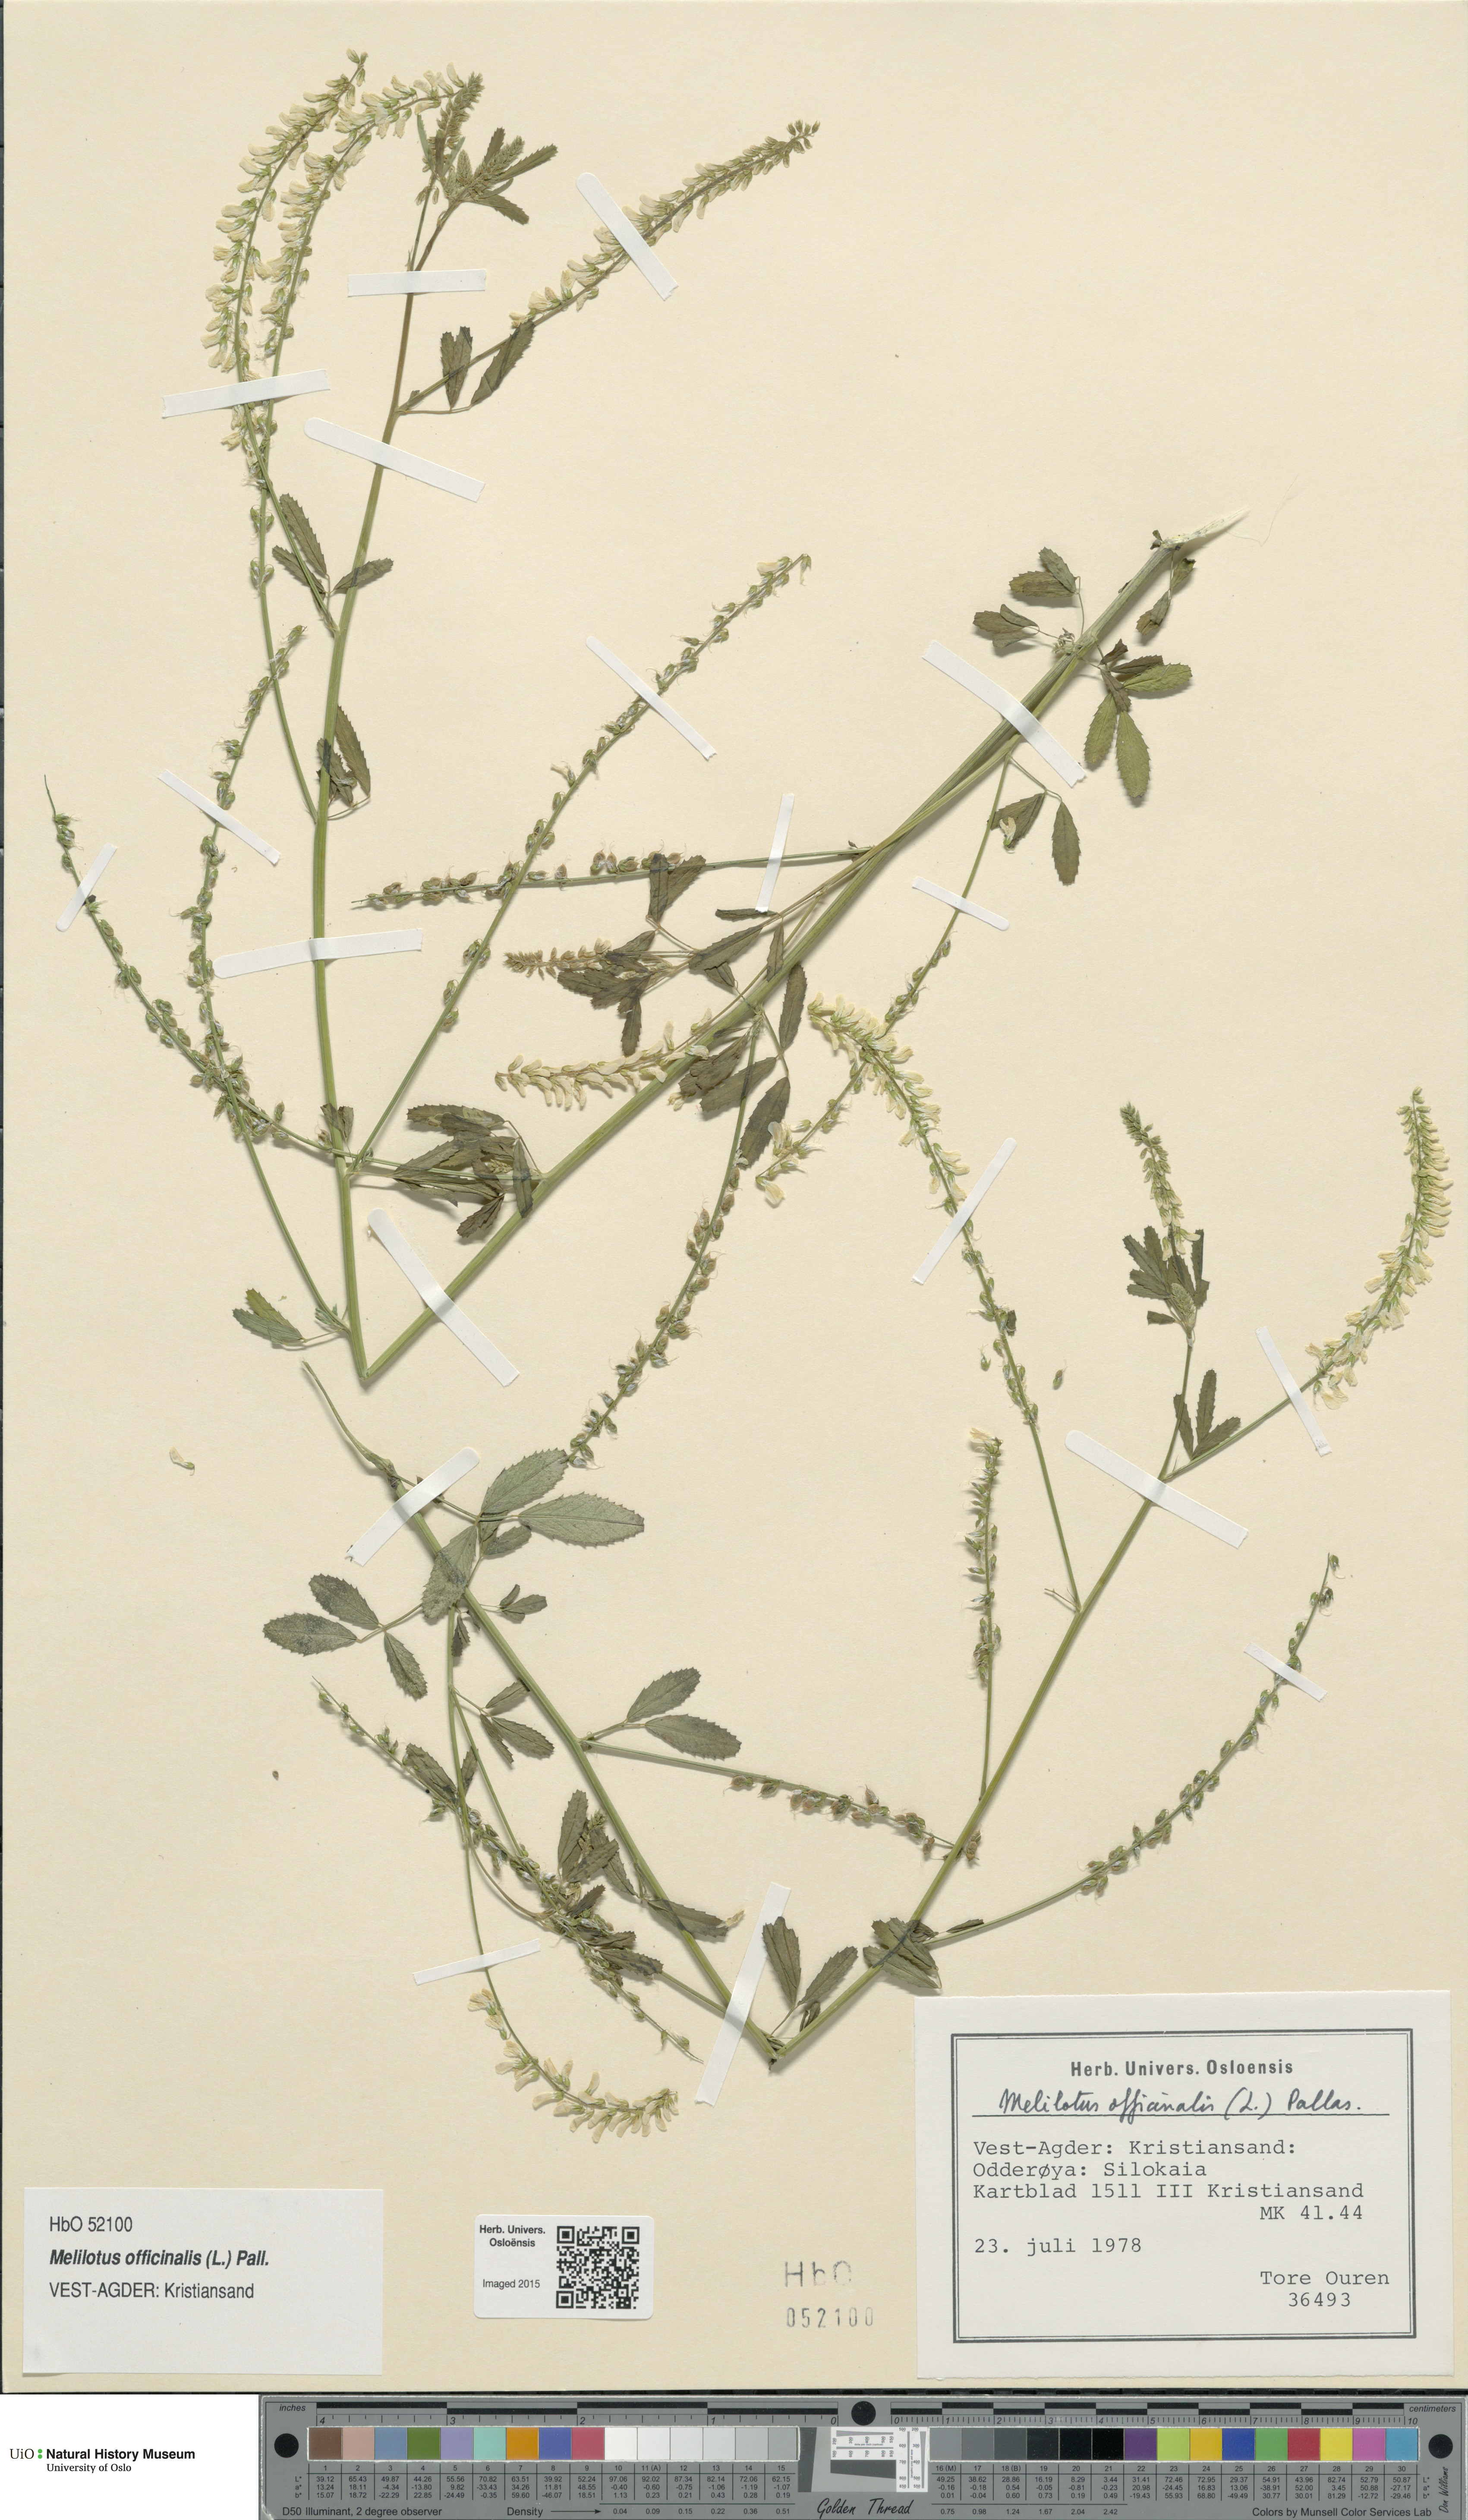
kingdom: Plantae
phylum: Tracheophyta
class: Magnoliopsida
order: Fabales
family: Fabaceae
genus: Melilotus
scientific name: Melilotus officinalis
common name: Sweetclover
